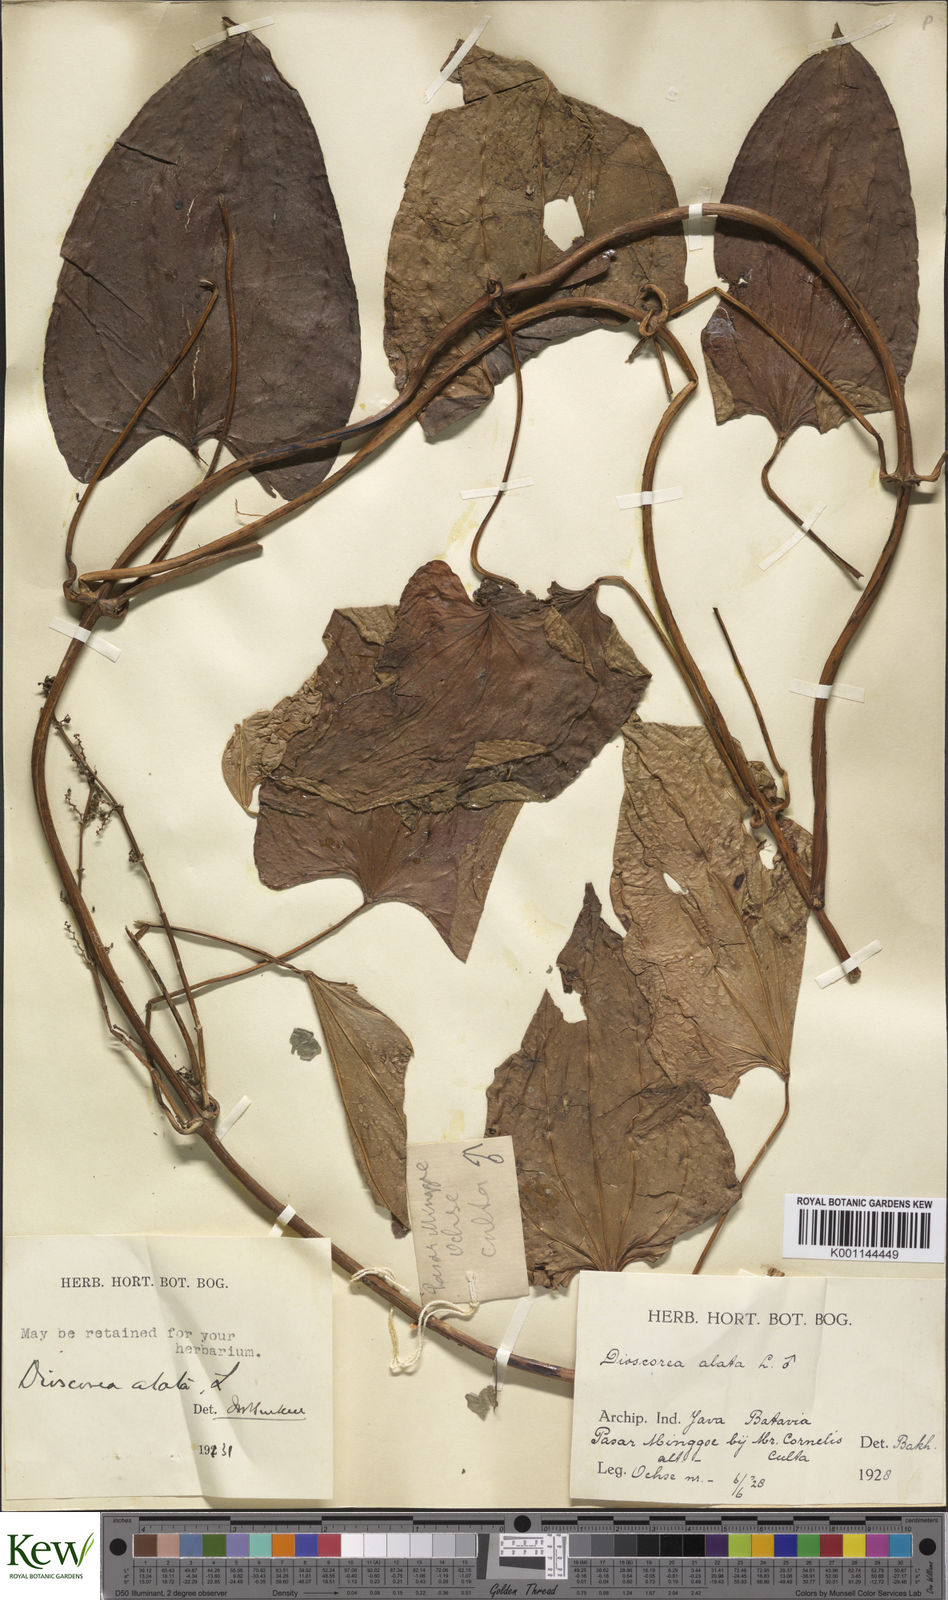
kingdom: Plantae
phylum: Tracheophyta
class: Liliopsida
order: Dioscoreales
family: Dioscoreaceae
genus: Dioscorea
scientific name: Dioscorea alata
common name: Water yam
